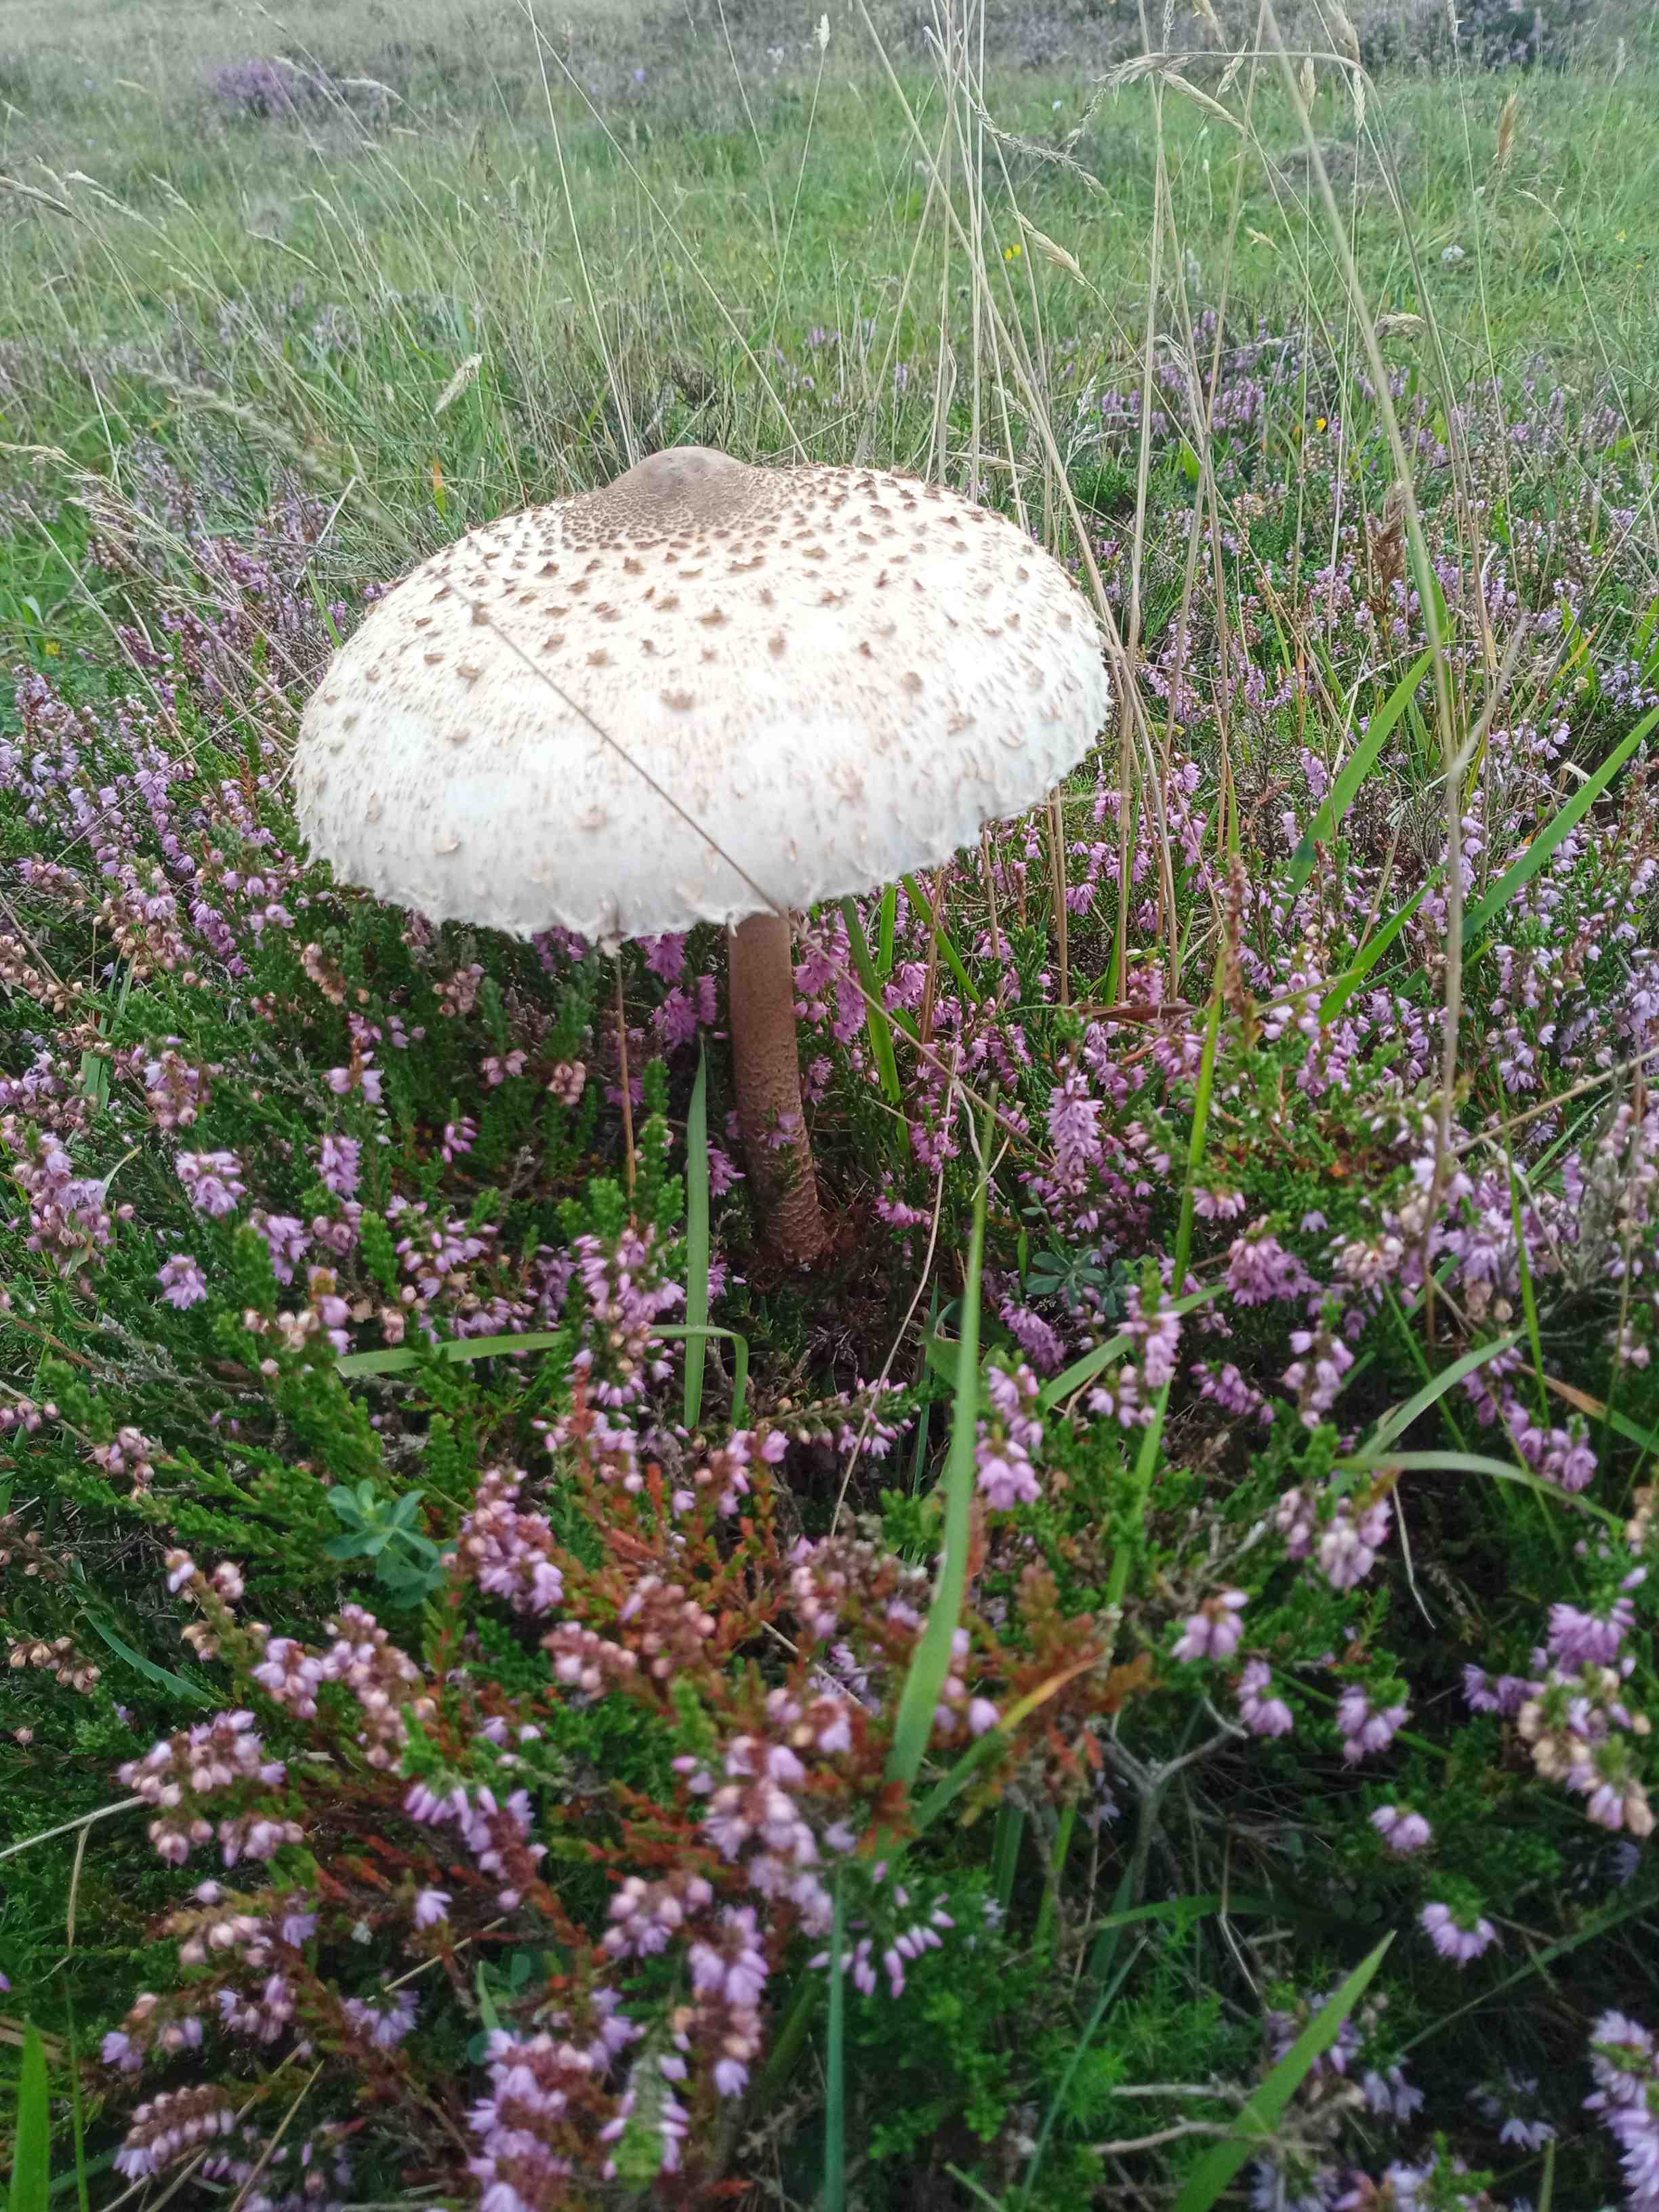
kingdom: Fungi
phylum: Basidiomycota
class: Agaricomycetes
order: Agaricales
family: Agaricaceae
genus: Macrolepiota
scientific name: Macrolepiota procera
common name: stor kæmpeparasolhat
